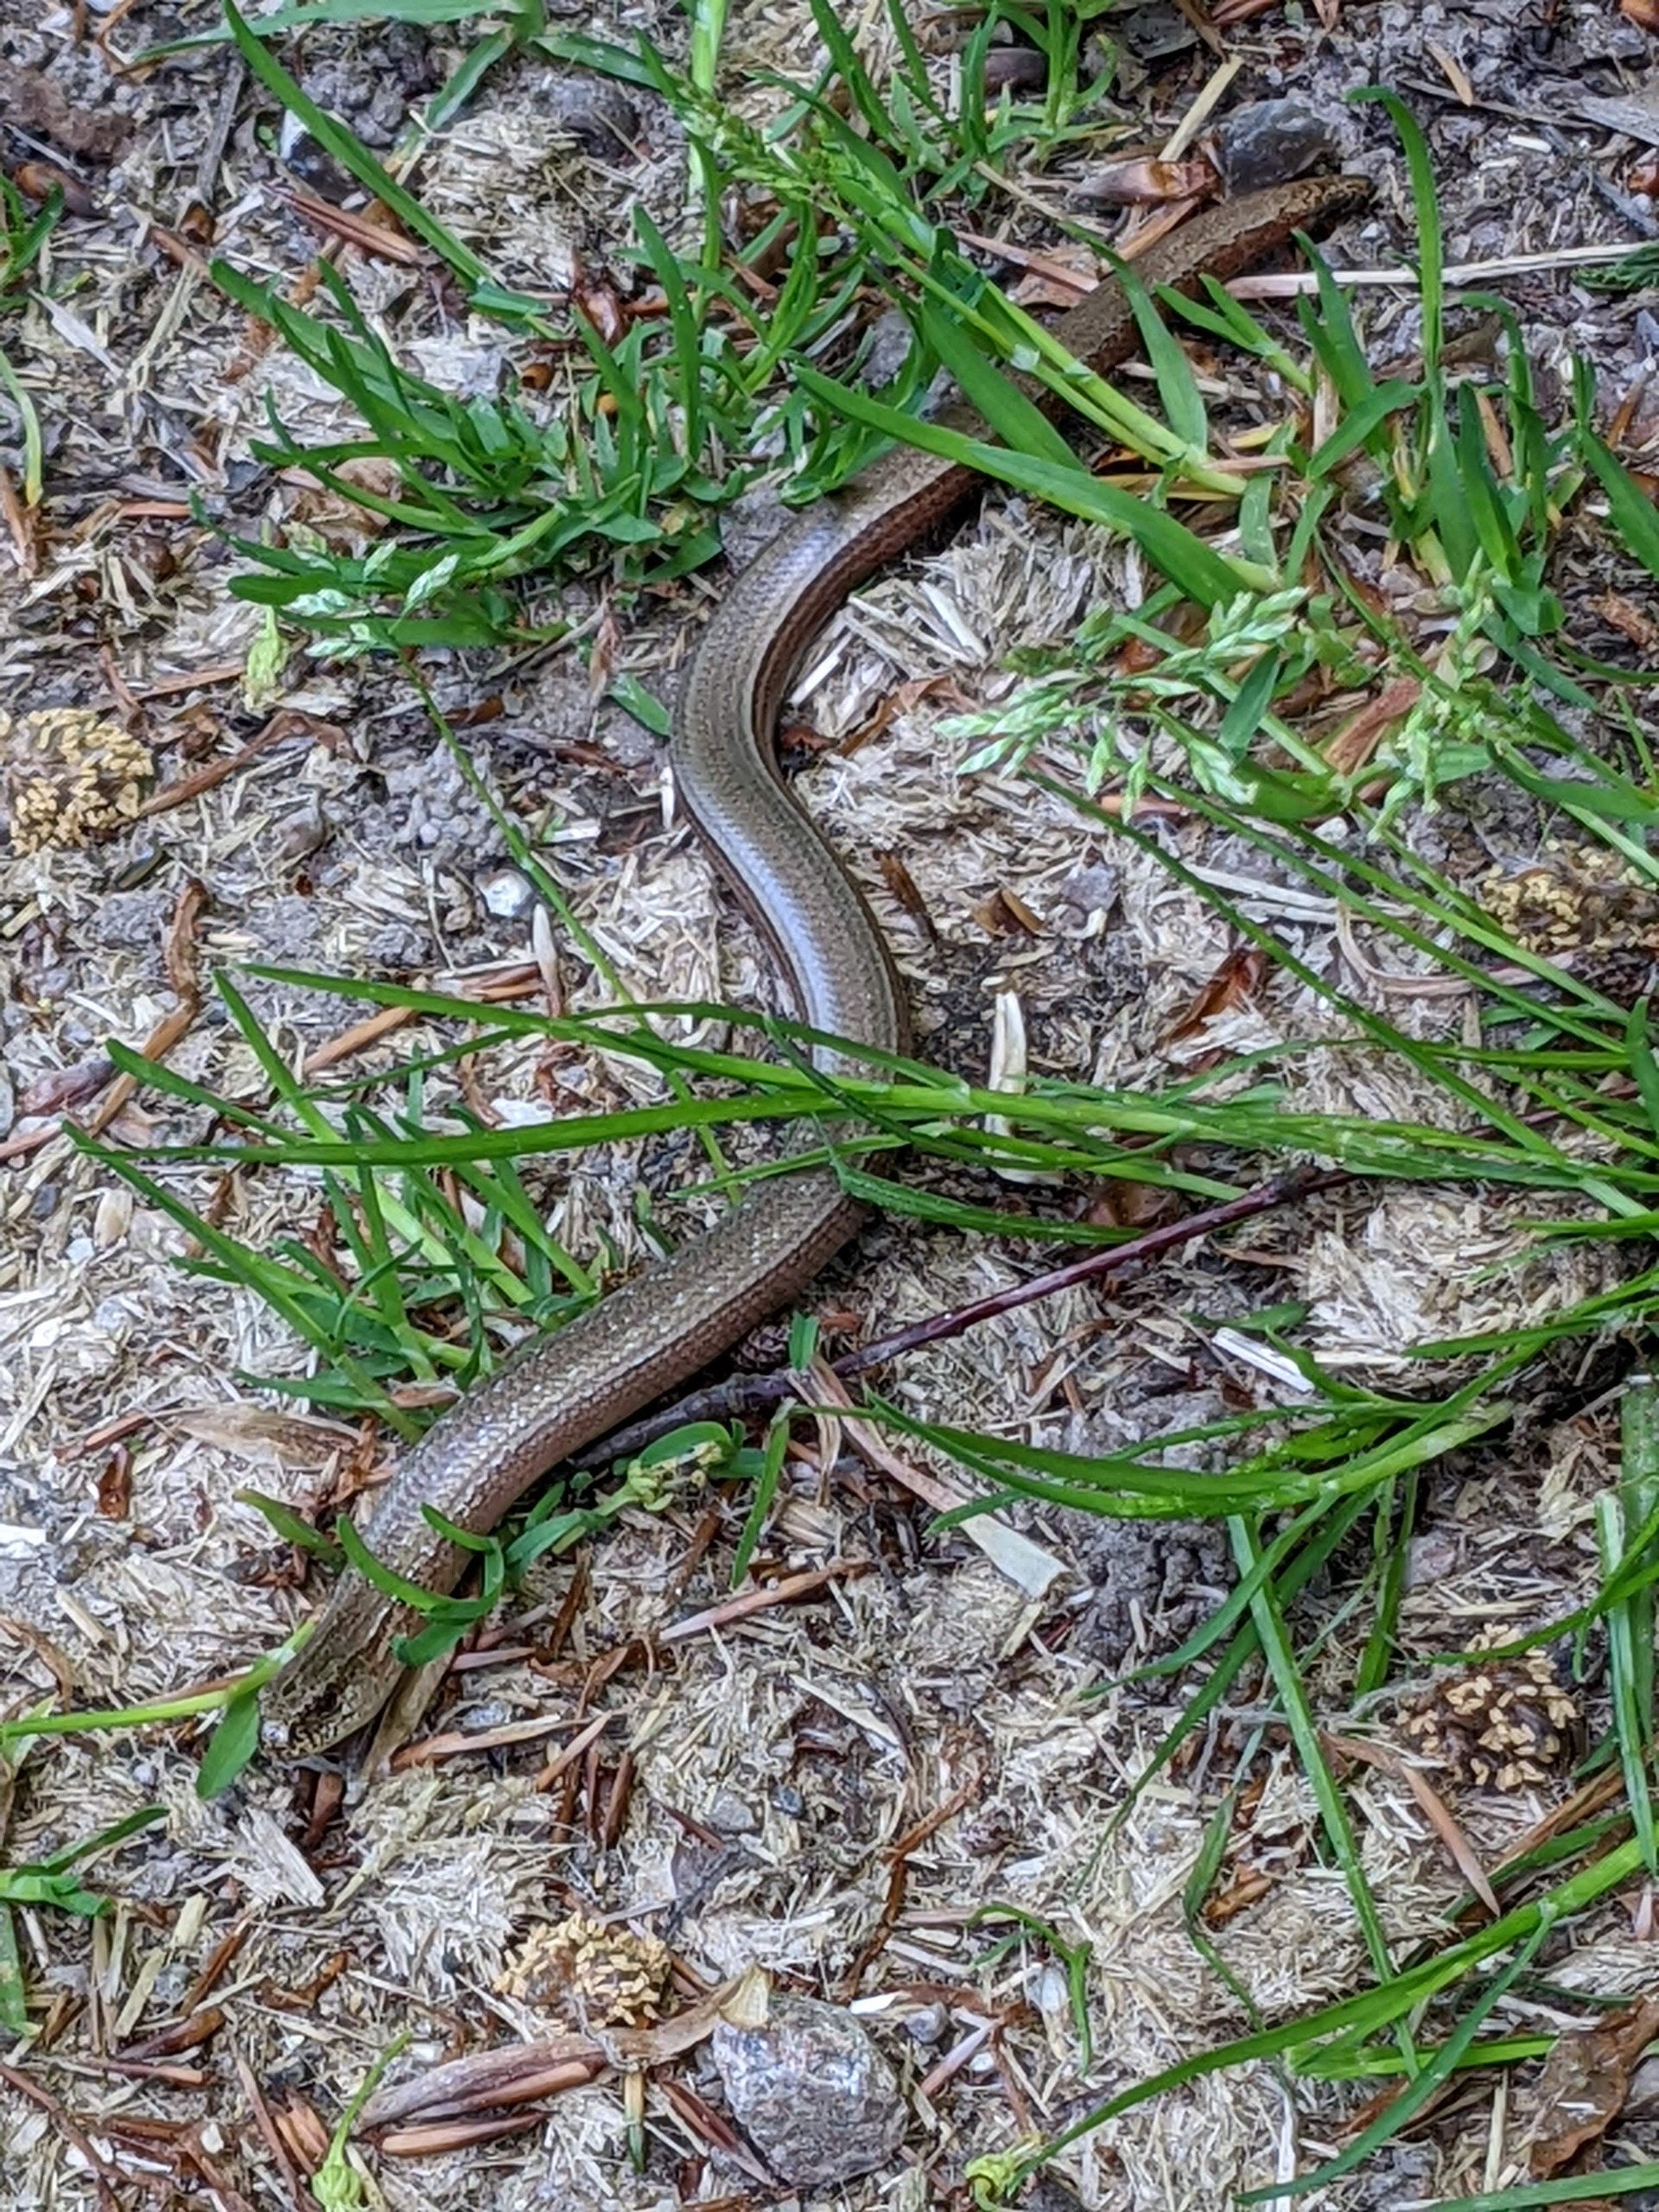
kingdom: Animalia
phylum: Chordata
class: Squamata
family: Anguidae
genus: Anguis
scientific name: Anguis fragilis
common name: Stålorm
